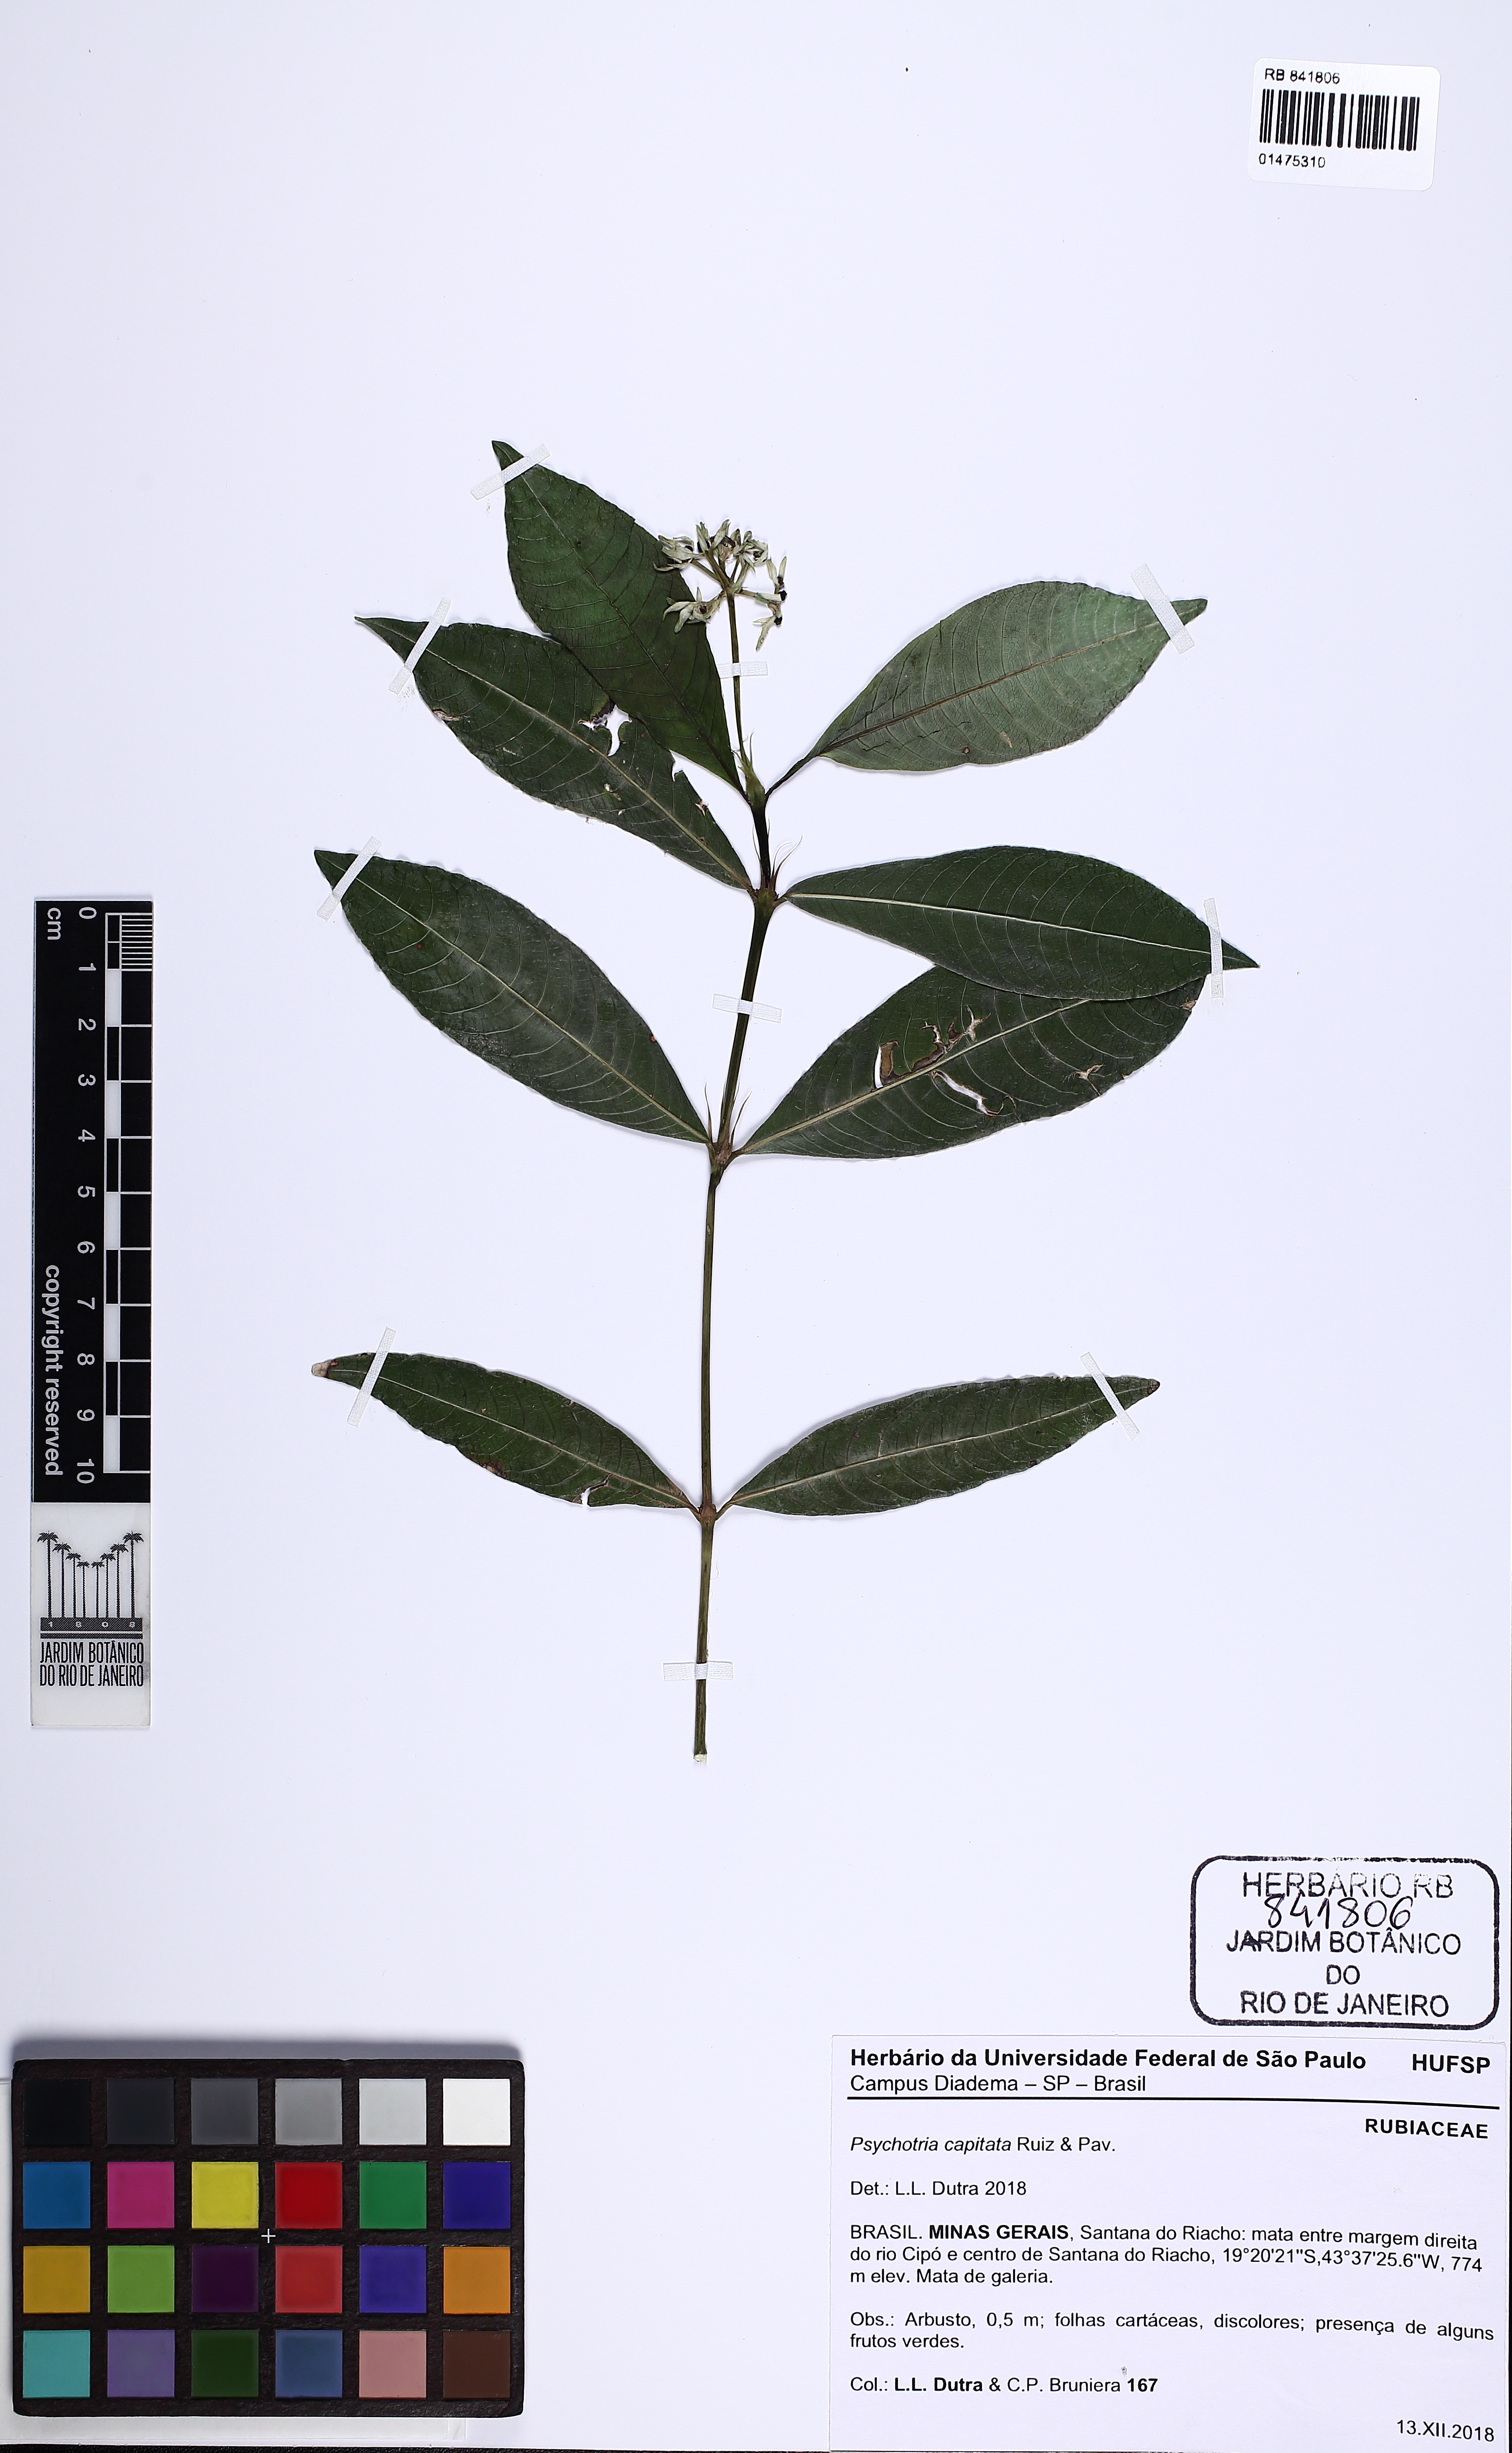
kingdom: Plantae
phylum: Tracheophyta
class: Magnoliopsida
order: Gentianales
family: Rubiaceae
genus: Palicourea
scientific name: Palicourea violacea
